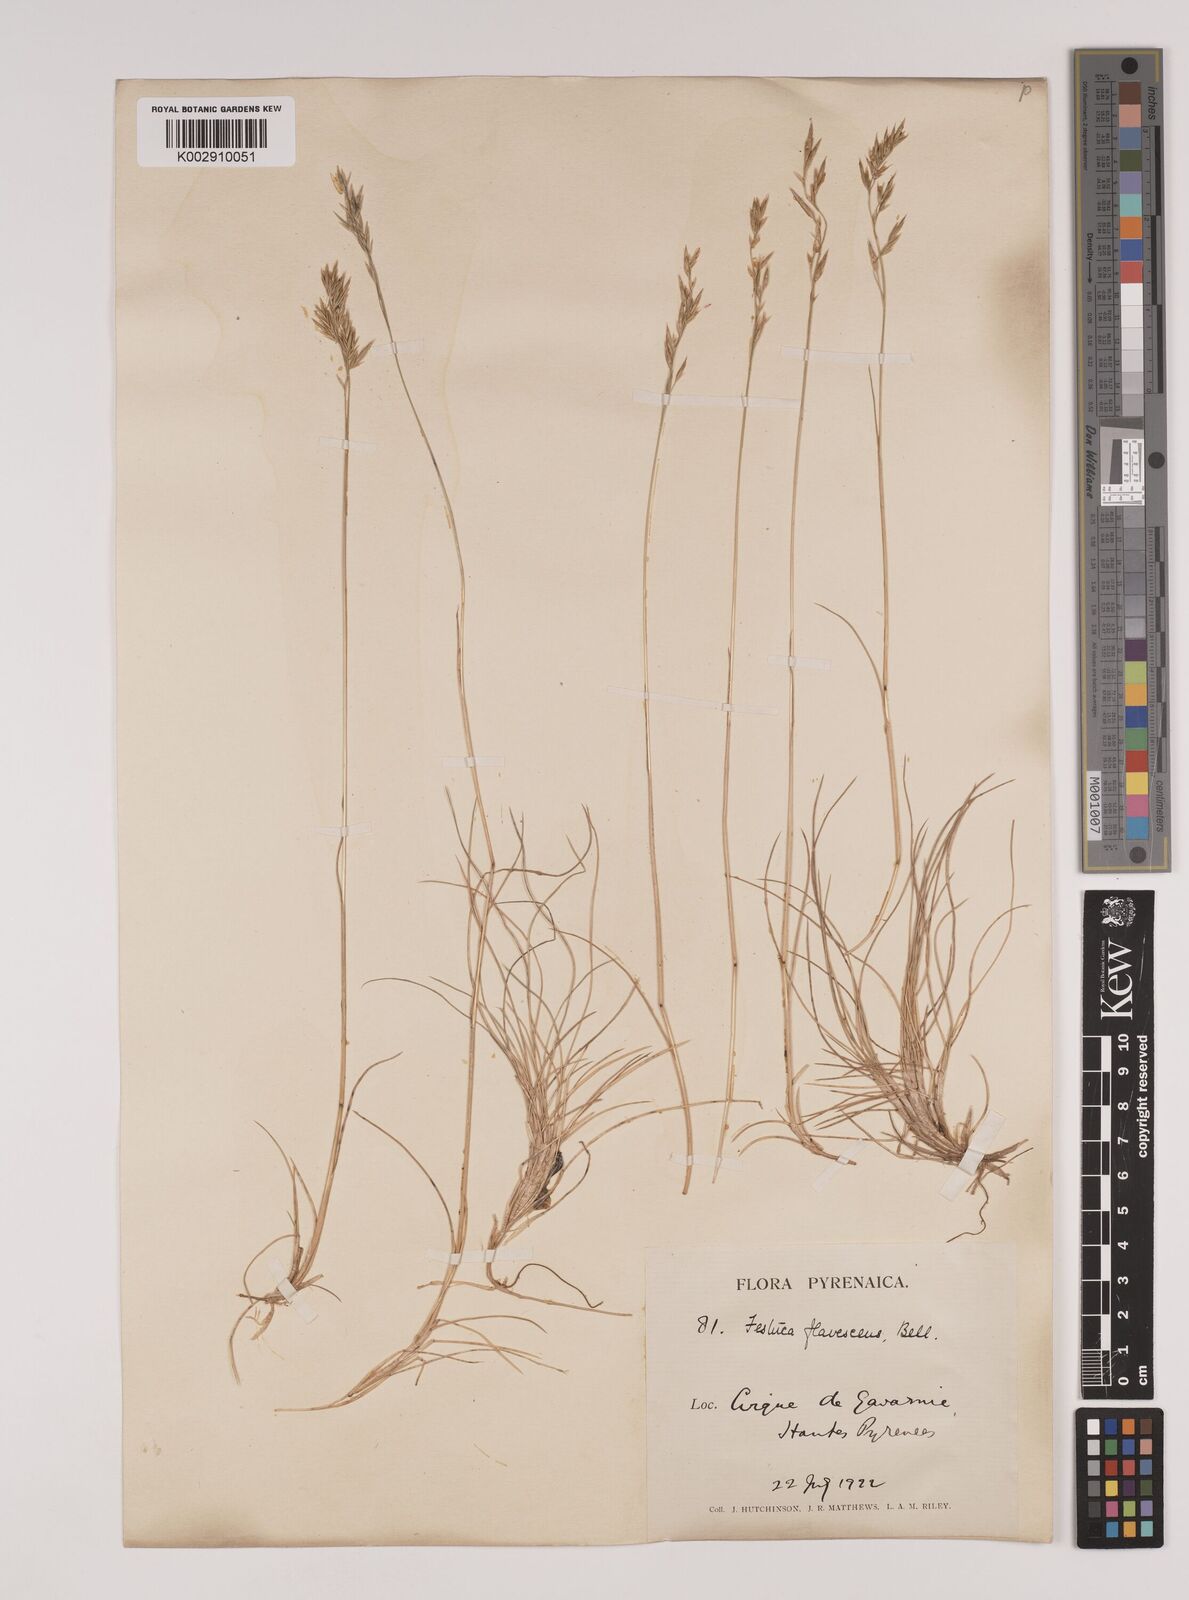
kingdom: Plantae
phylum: Tracheophyta
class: Liliopsida
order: Poales
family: Poaceae
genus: Festuca
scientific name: Festuca gautieri
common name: Spiky fescue
